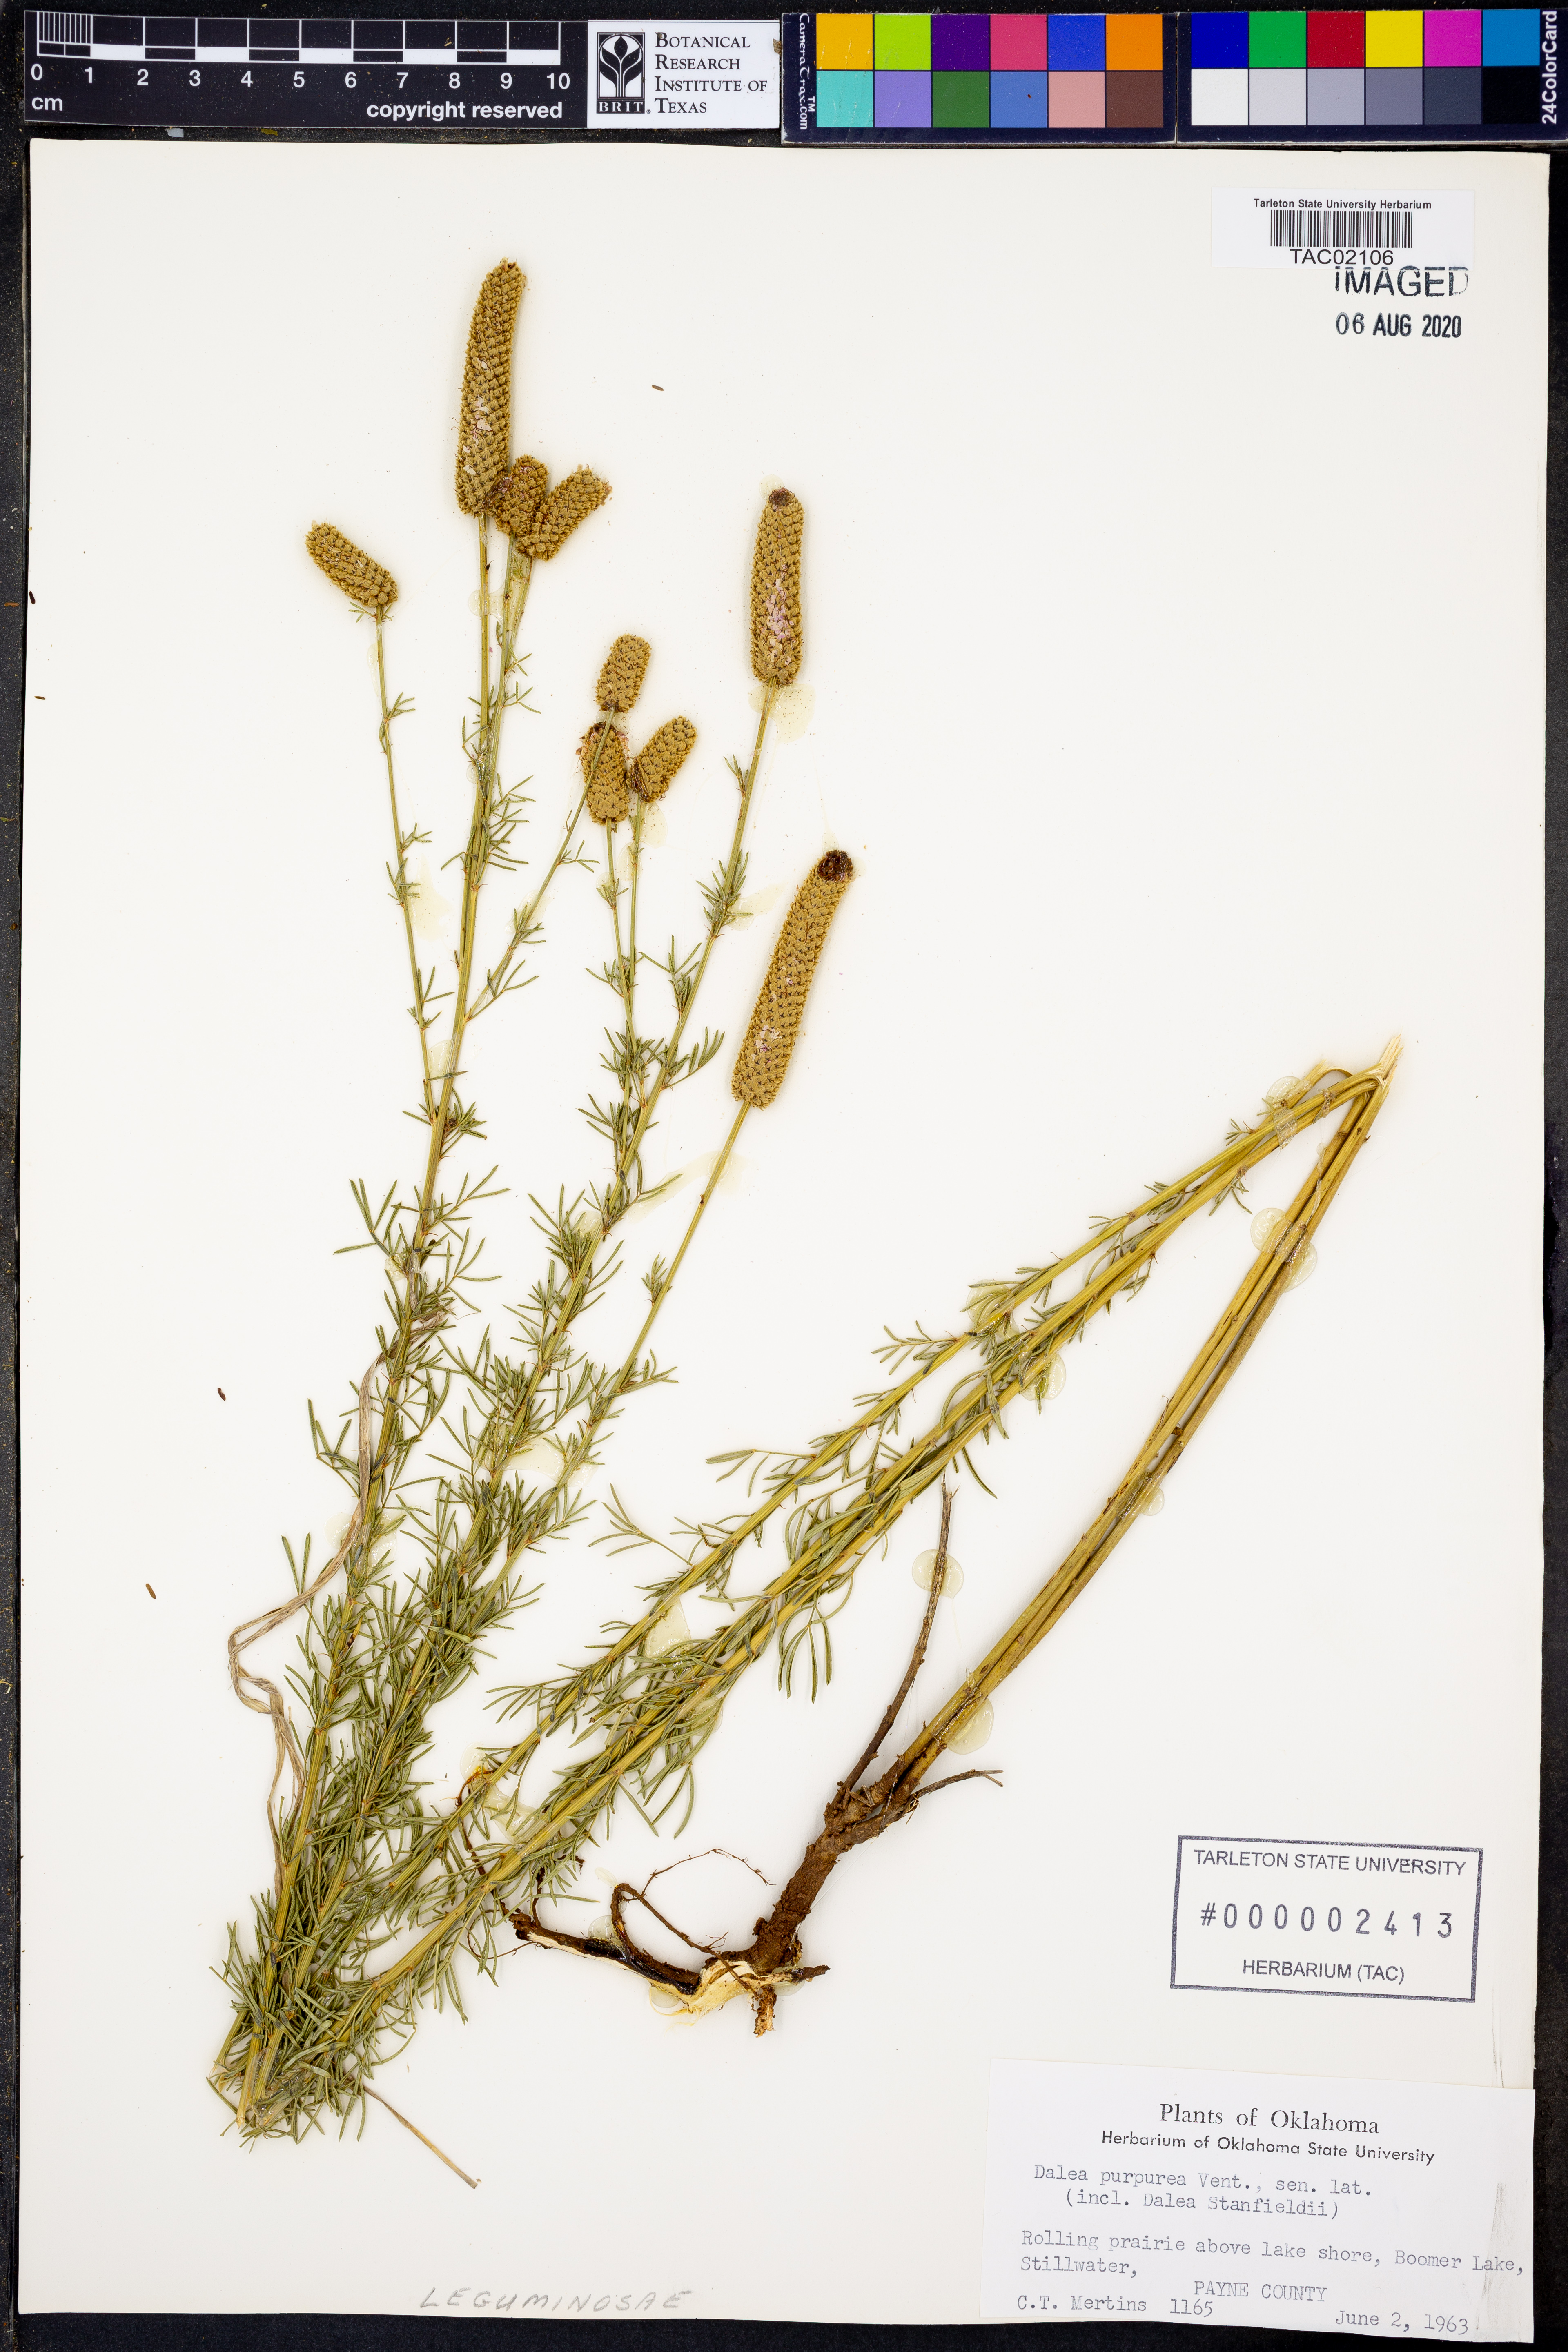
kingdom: Plantae
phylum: Tracheophyta
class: Magnoliopsida
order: Fabales
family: Fabaceae
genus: Dalea
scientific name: Dalea purpurea
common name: Purple prairie-clover
